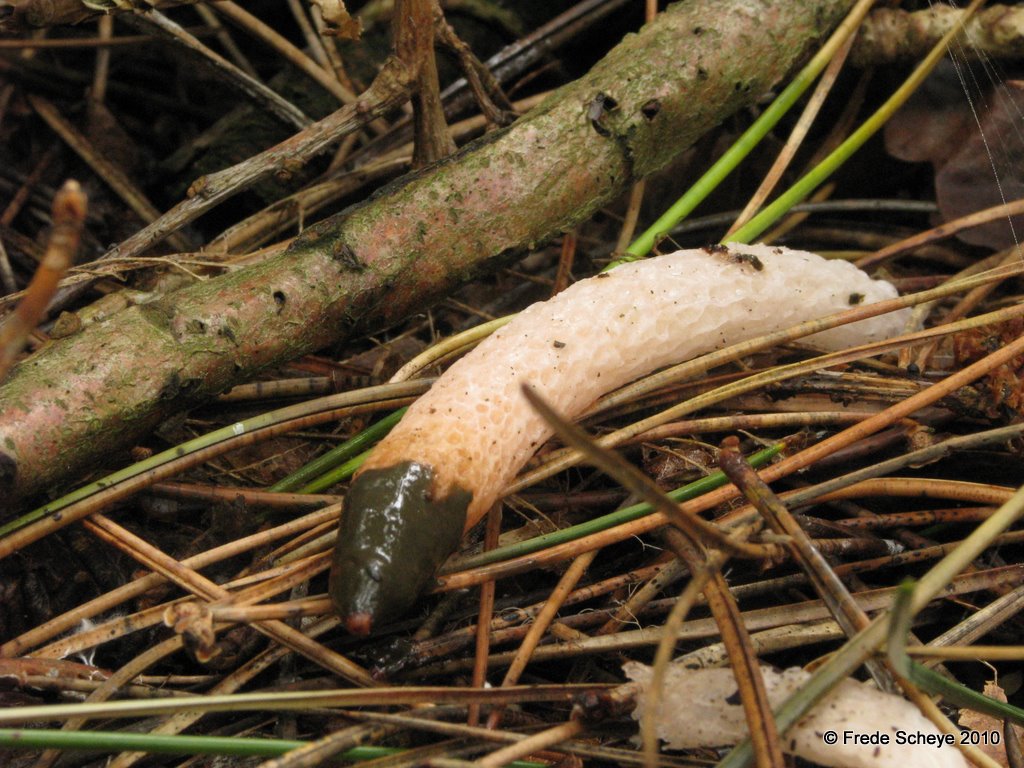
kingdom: Fungi
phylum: Basidiomycota
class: Agaricomycetes
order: Phallales
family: Phallaceae
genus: Mutinus
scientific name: Mutinus caninus
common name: hunde-stinksvamp
